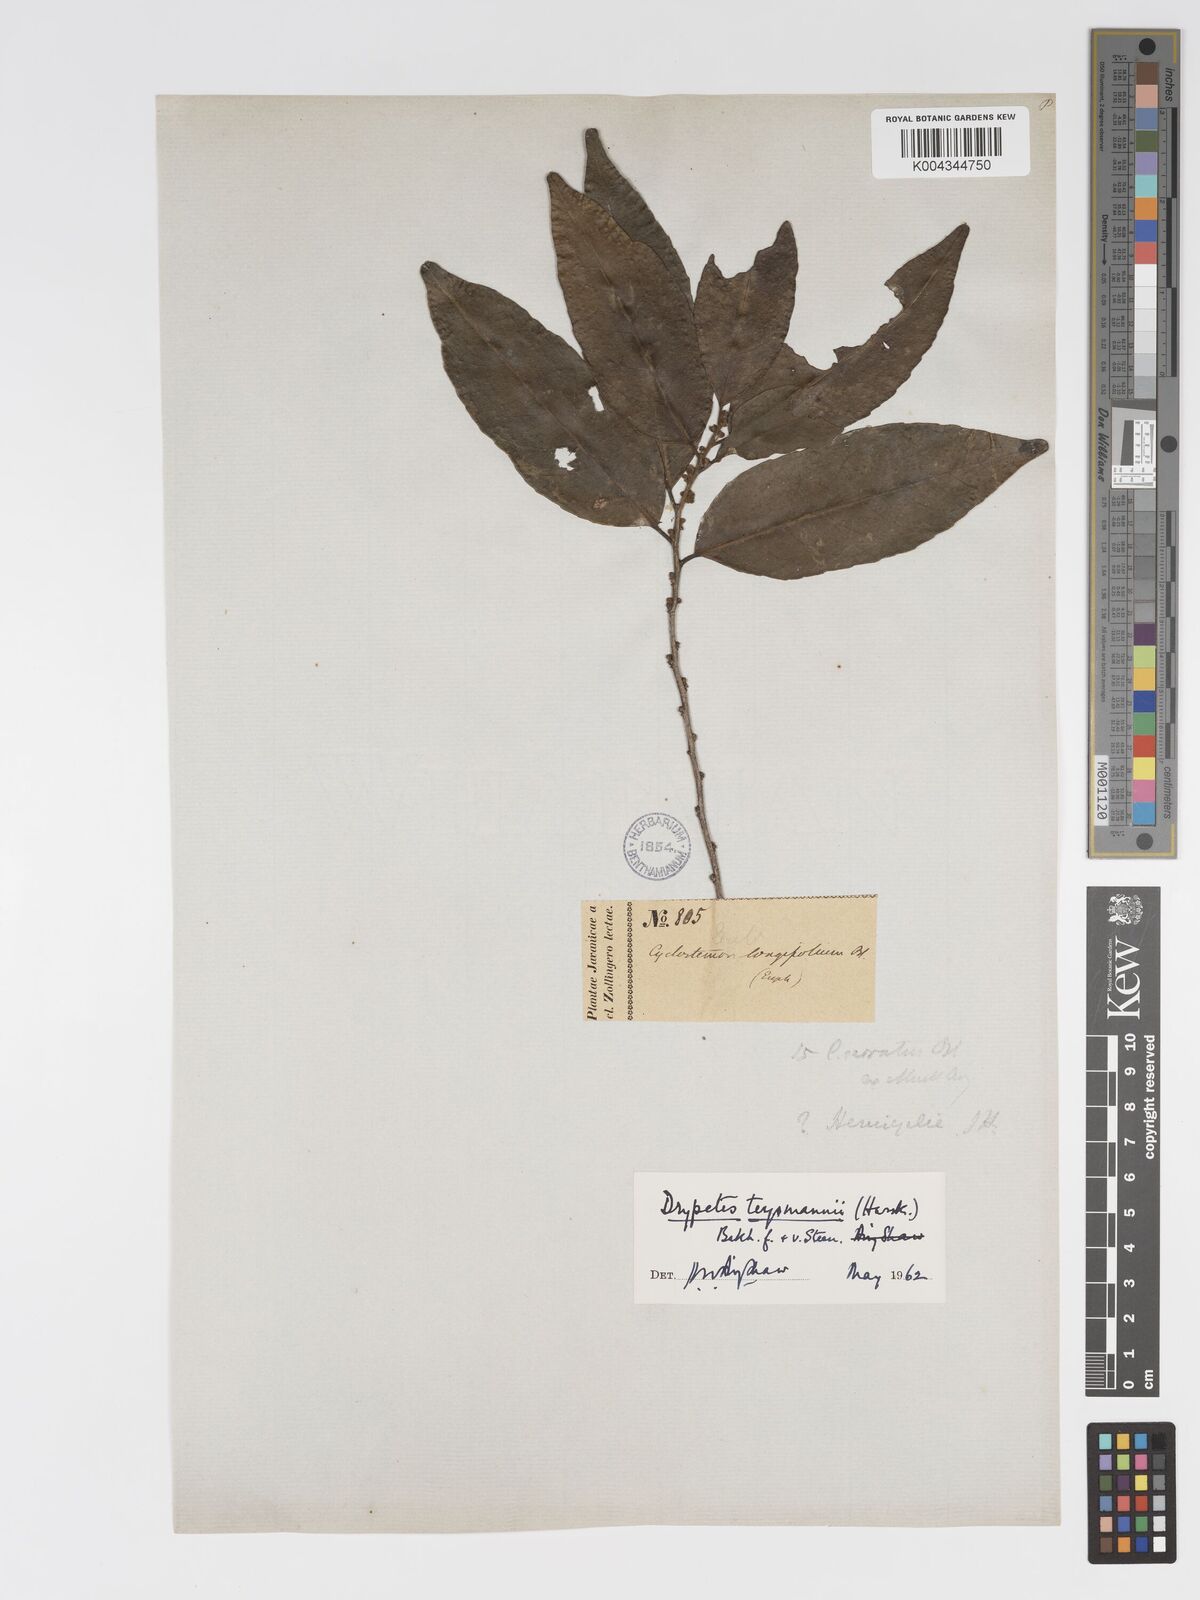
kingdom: Plantae
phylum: Tracheophyta
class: Magnoliopsida
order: Malpighiales
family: Putranjivaceae
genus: Drypetes
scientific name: Drypetes teysmannii
